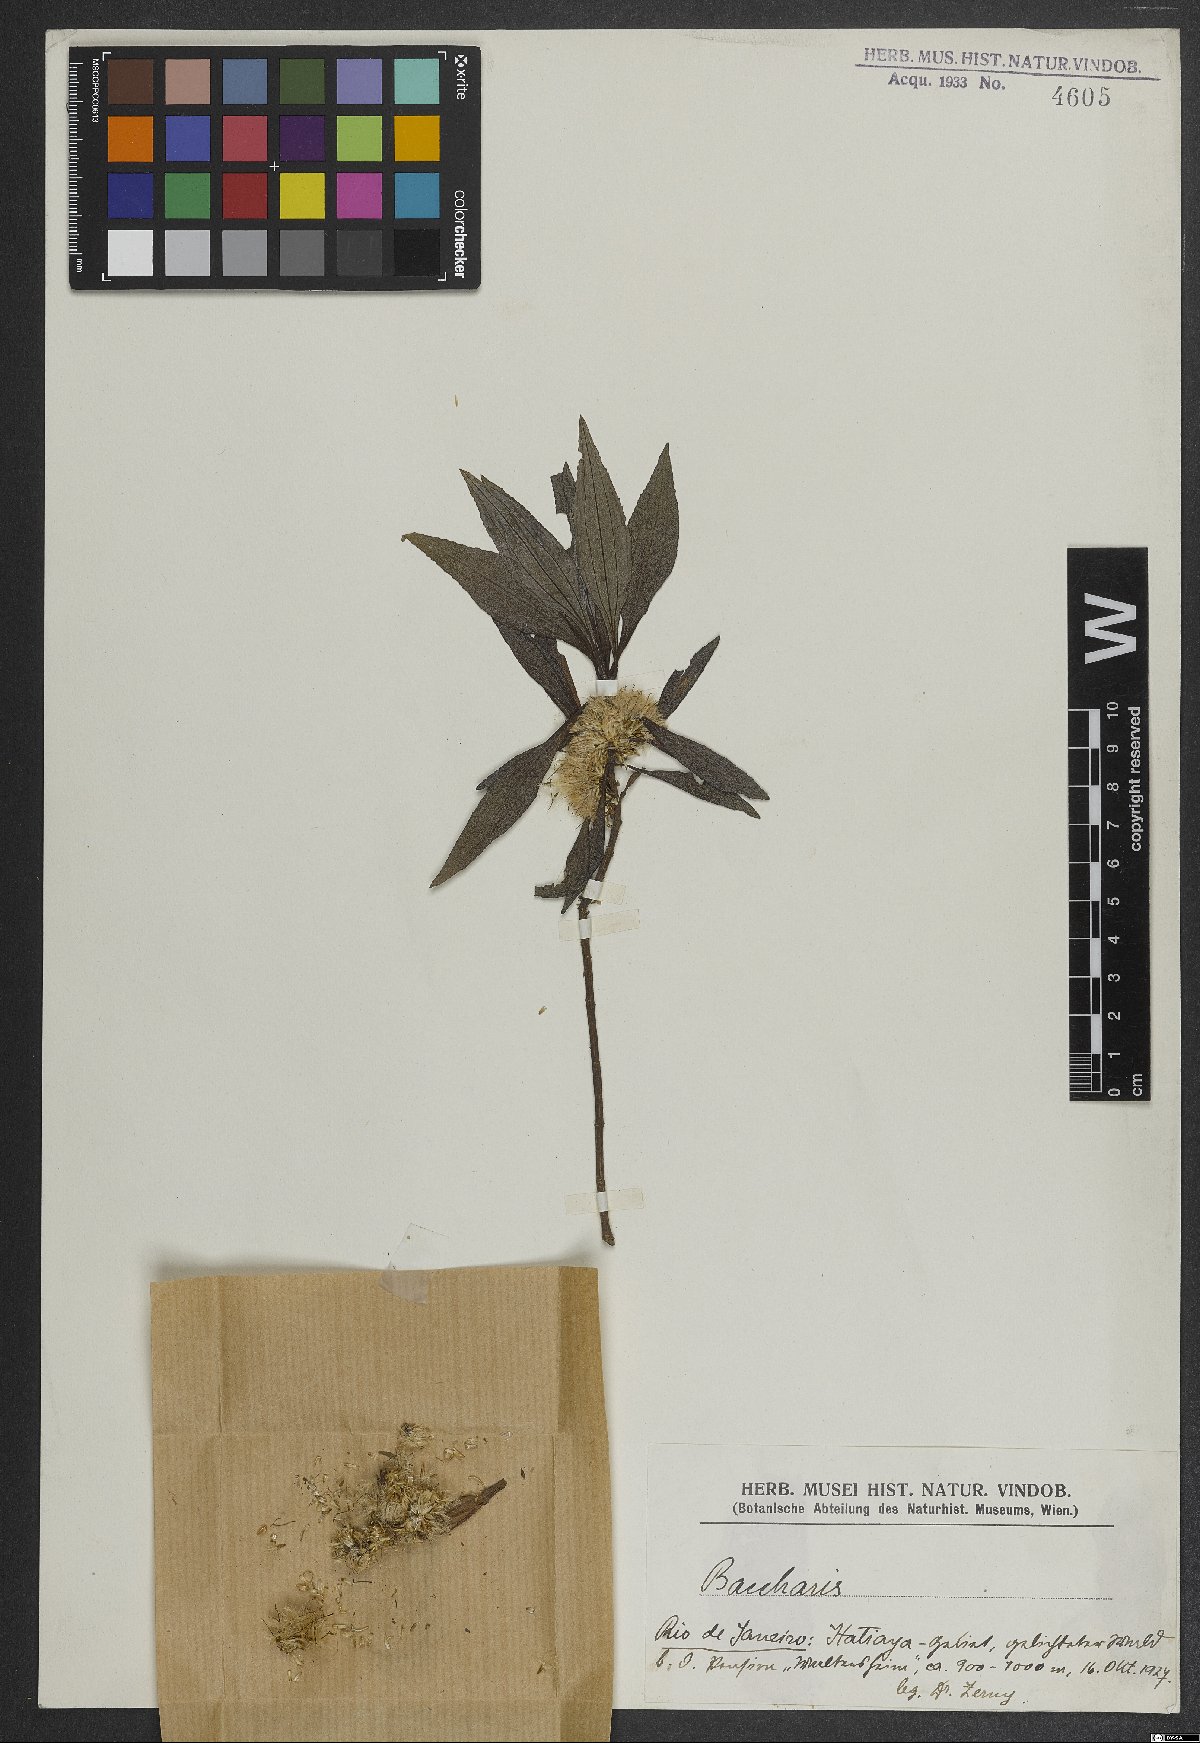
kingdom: Plantae
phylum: Tracheophyta
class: Magnoliopsida
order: Asterales
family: Asteraceae
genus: Baccharis
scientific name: Baccharis
